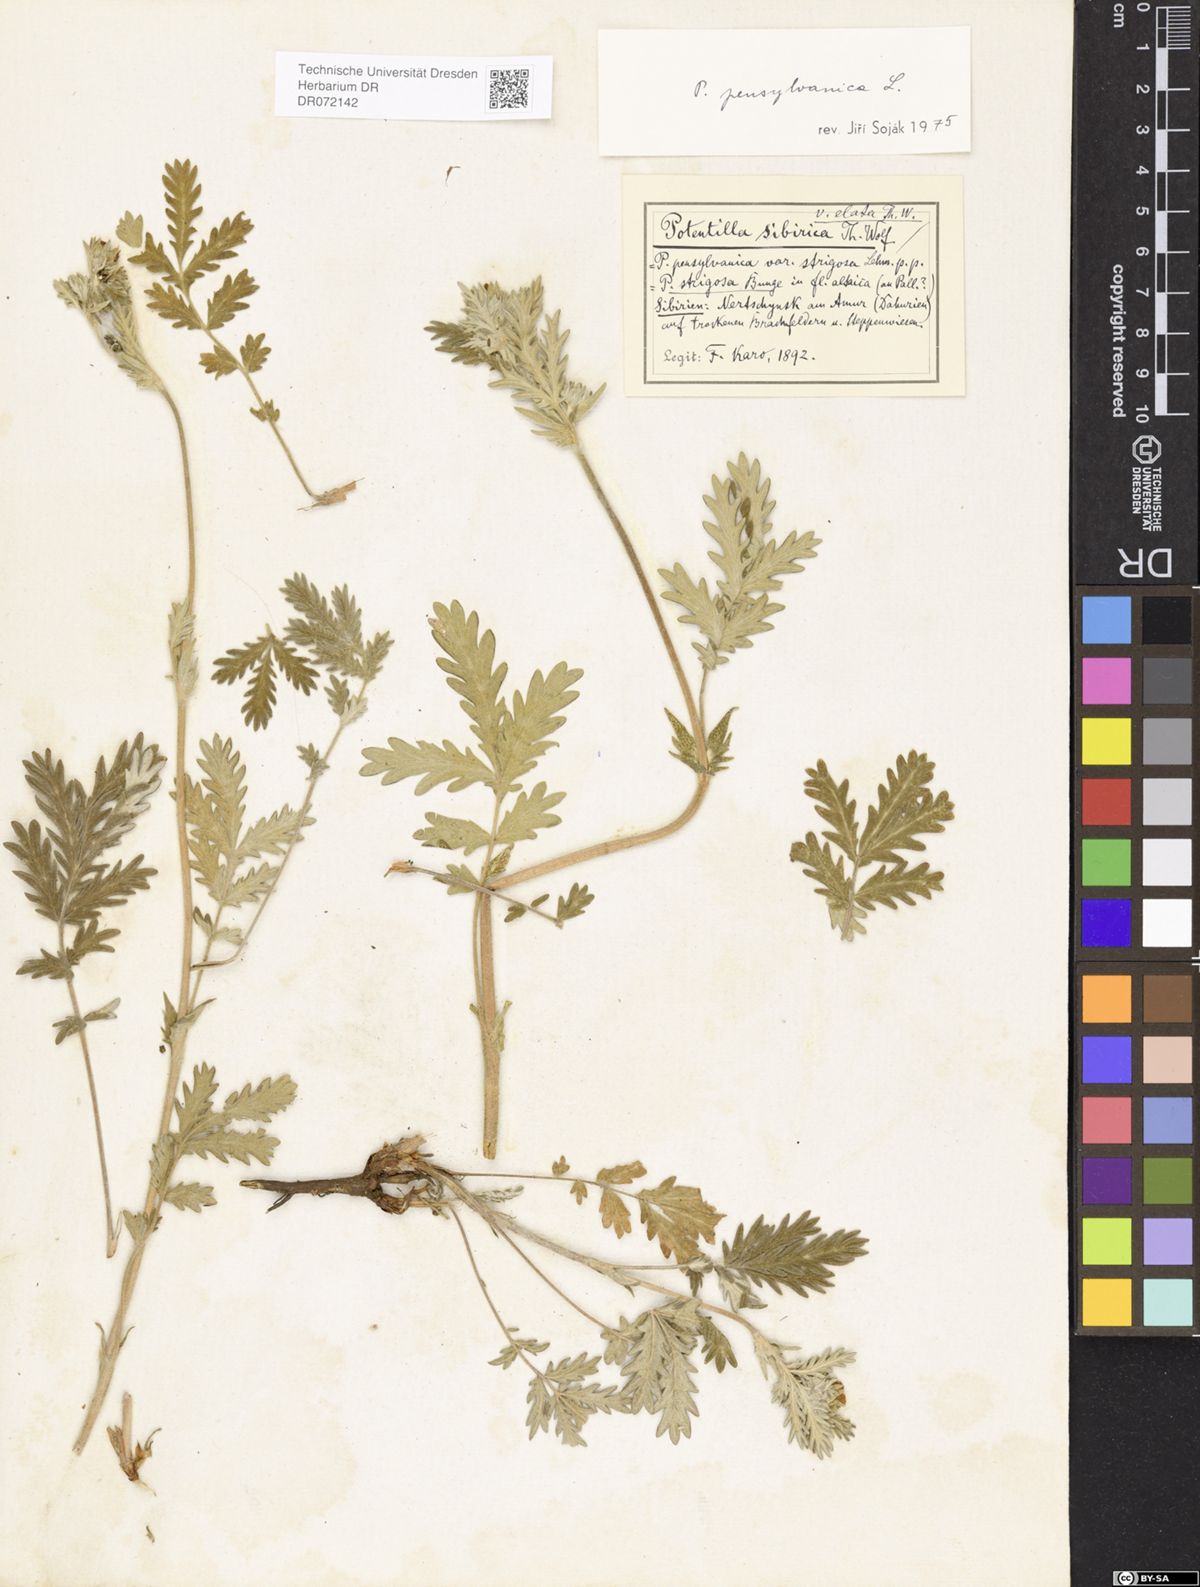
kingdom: Plantae
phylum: Tracheophyta
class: Magnoliopsida
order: Rosales
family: Rosaceae
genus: Potentilla
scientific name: Potentilla pensylvanica
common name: Pennsylvania cinquefoil
